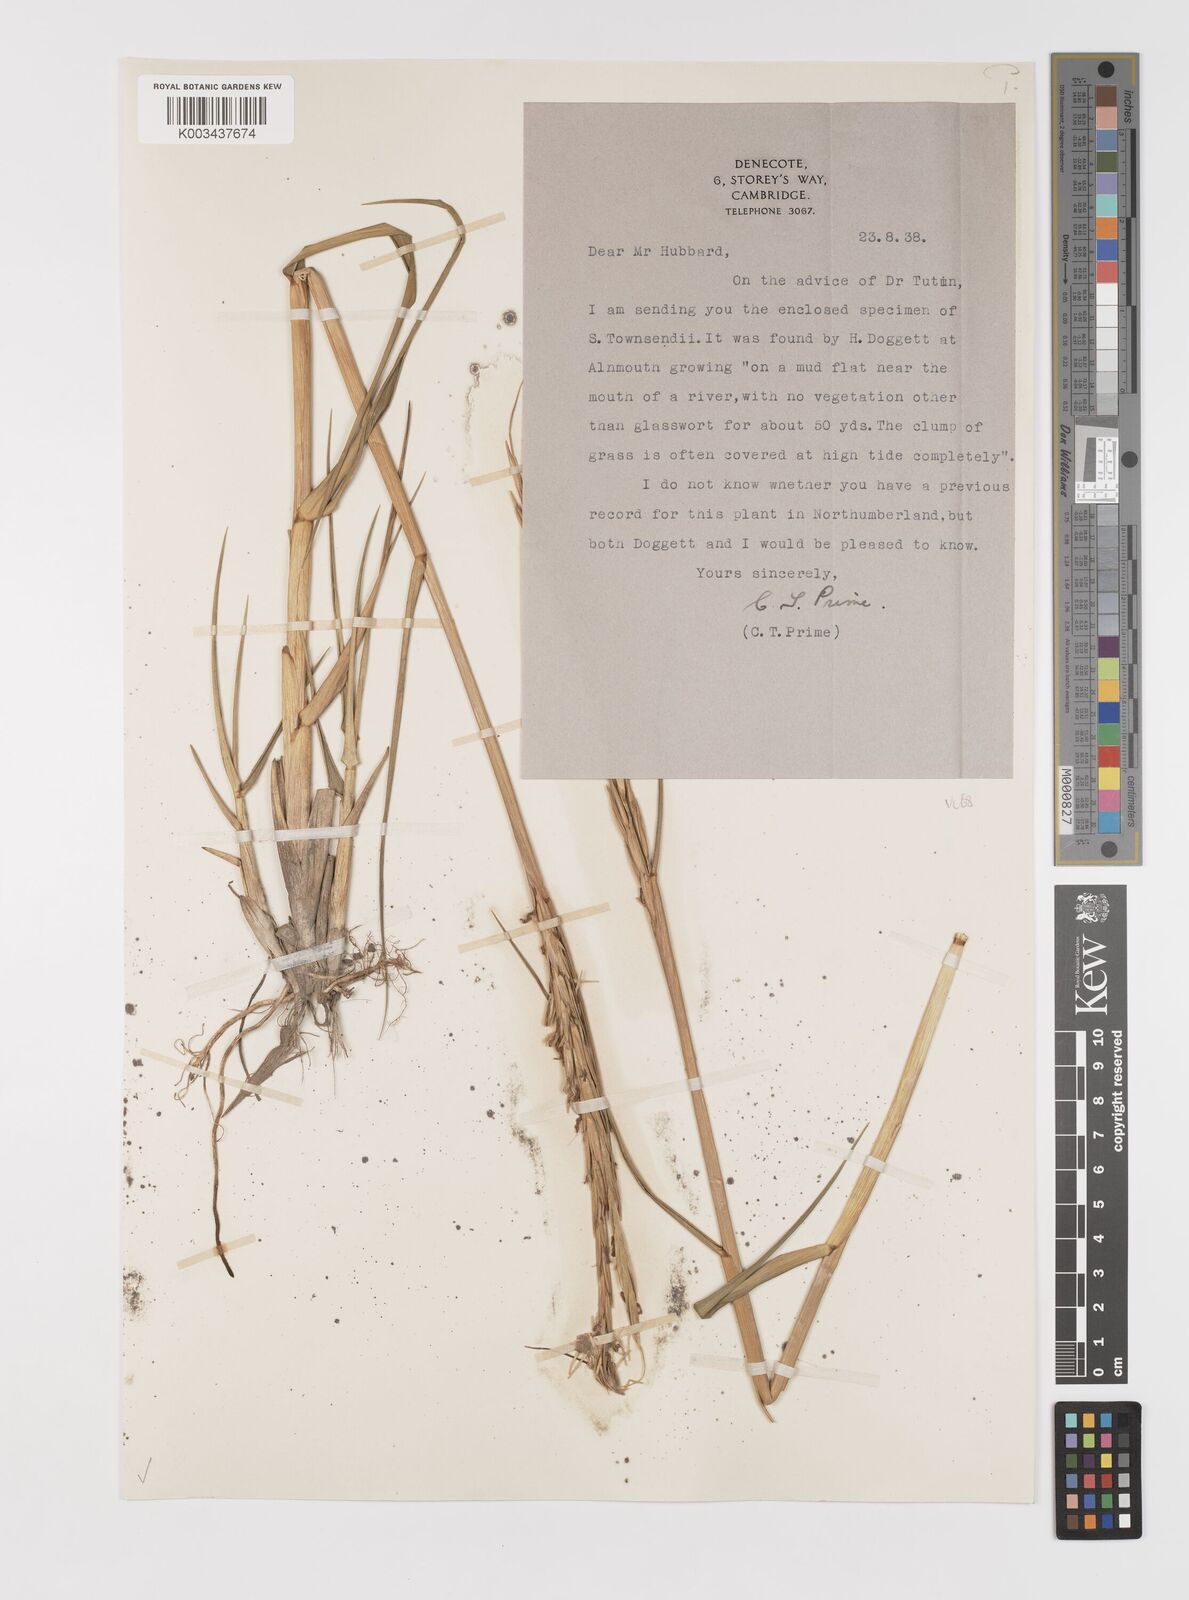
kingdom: Plantae
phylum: Tracheophyta
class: Liliopsida
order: Poales
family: Poaceae
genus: Sporobolus
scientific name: Sporobolus anglicus
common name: English cordgrass
